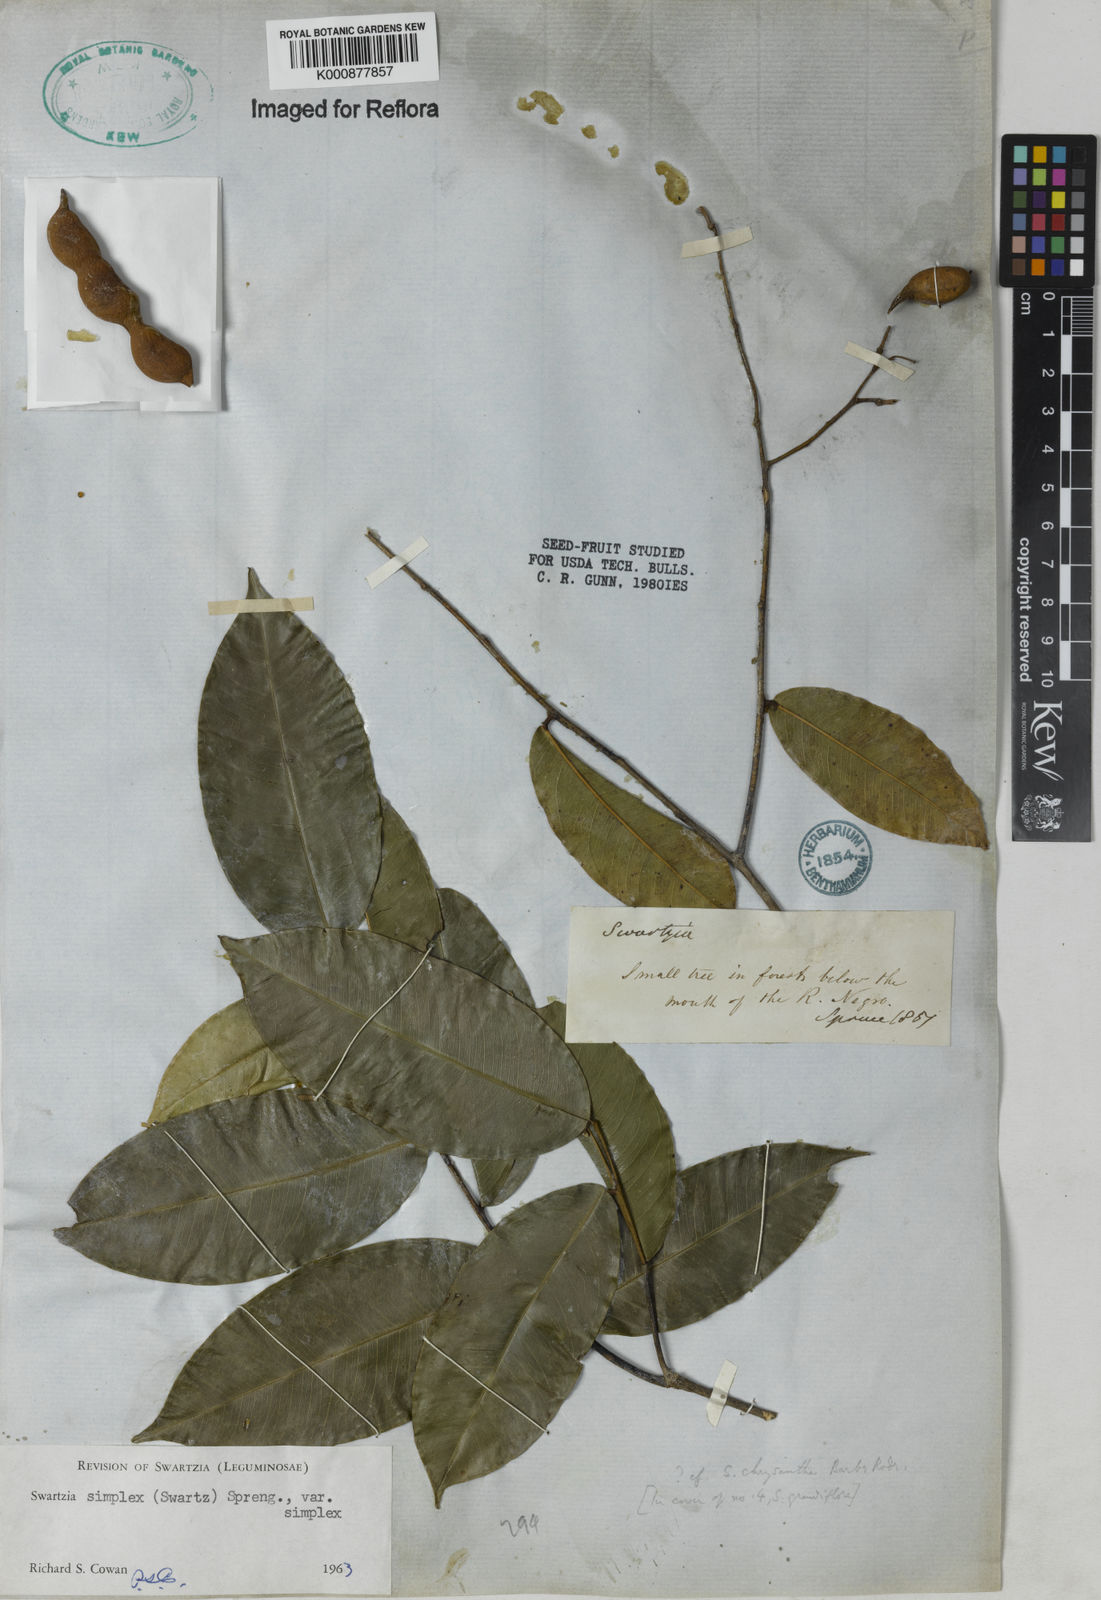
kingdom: Plantae
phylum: Tracheophyta
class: Magnoliopsida
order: Fabales
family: Fabaceae
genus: Swartzia
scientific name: Swartzia simplex
